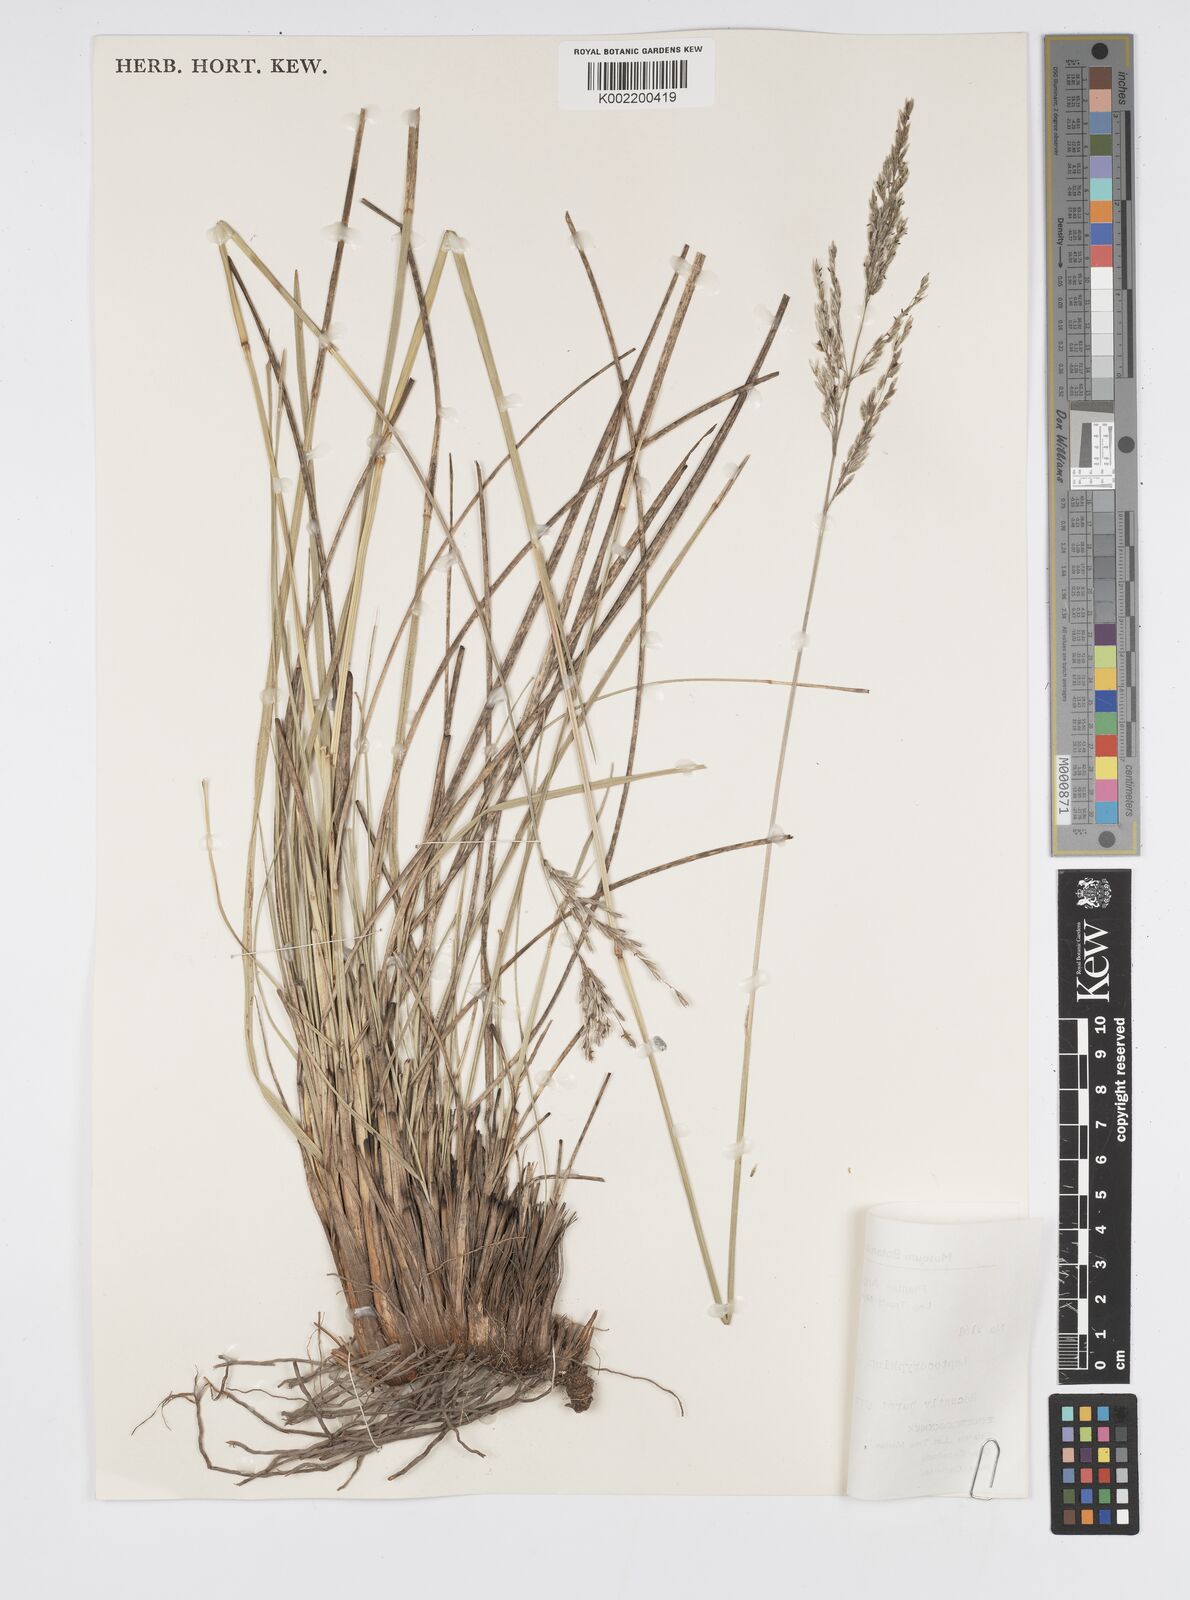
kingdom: Plantae
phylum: Tracheophyta
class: Liliopsida
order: Poales
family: Poaceae
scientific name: Poaceae
